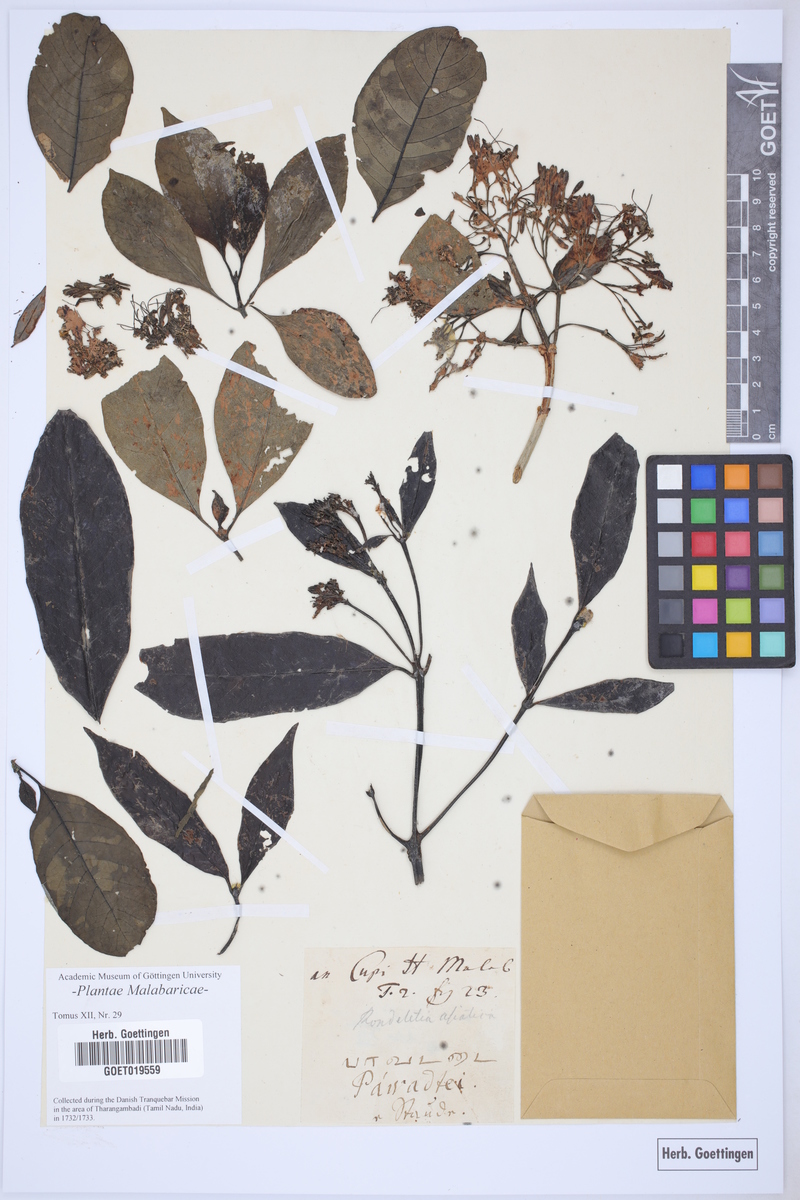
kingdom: Plantae
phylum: Tracheophyta
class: Magnoliopsida
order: Gentianales
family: Rubiaceae
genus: Tarenna
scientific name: Tarenna asiatica
